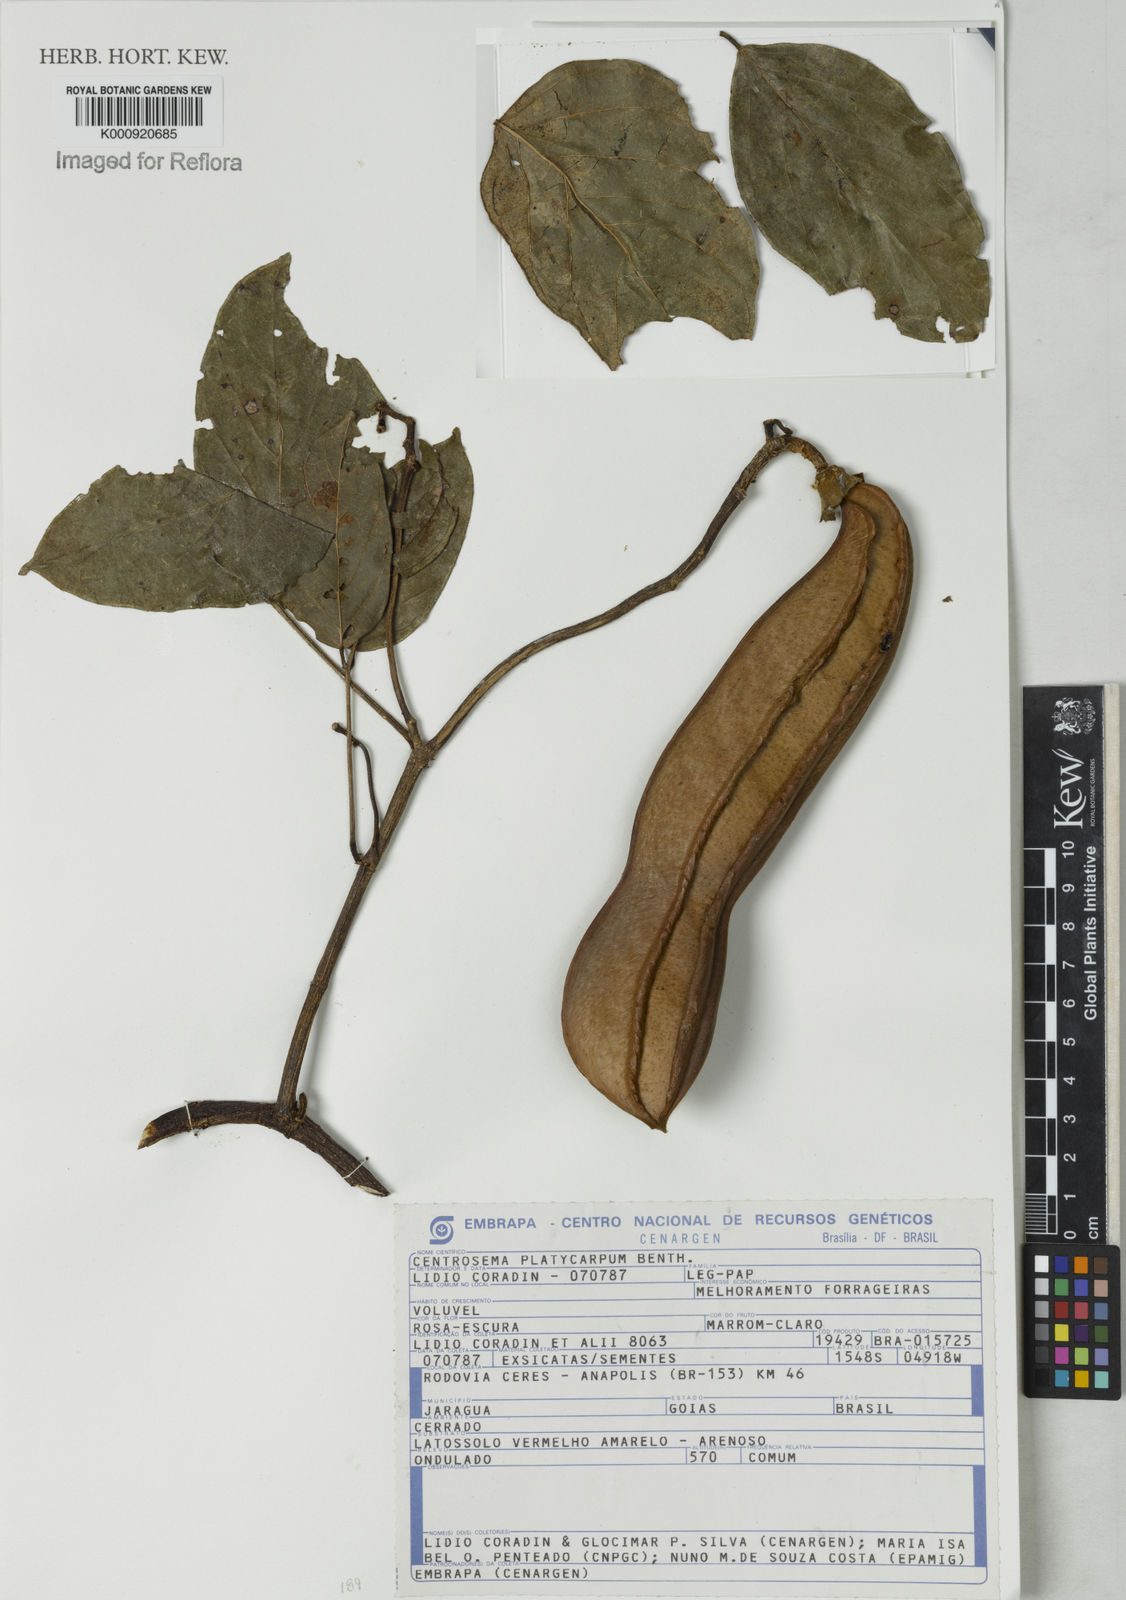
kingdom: Plantae
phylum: Tracheophyta
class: Magnoliopsida
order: Fabales
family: Fabaceae
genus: Centrosema
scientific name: Centrosema platycarpum
